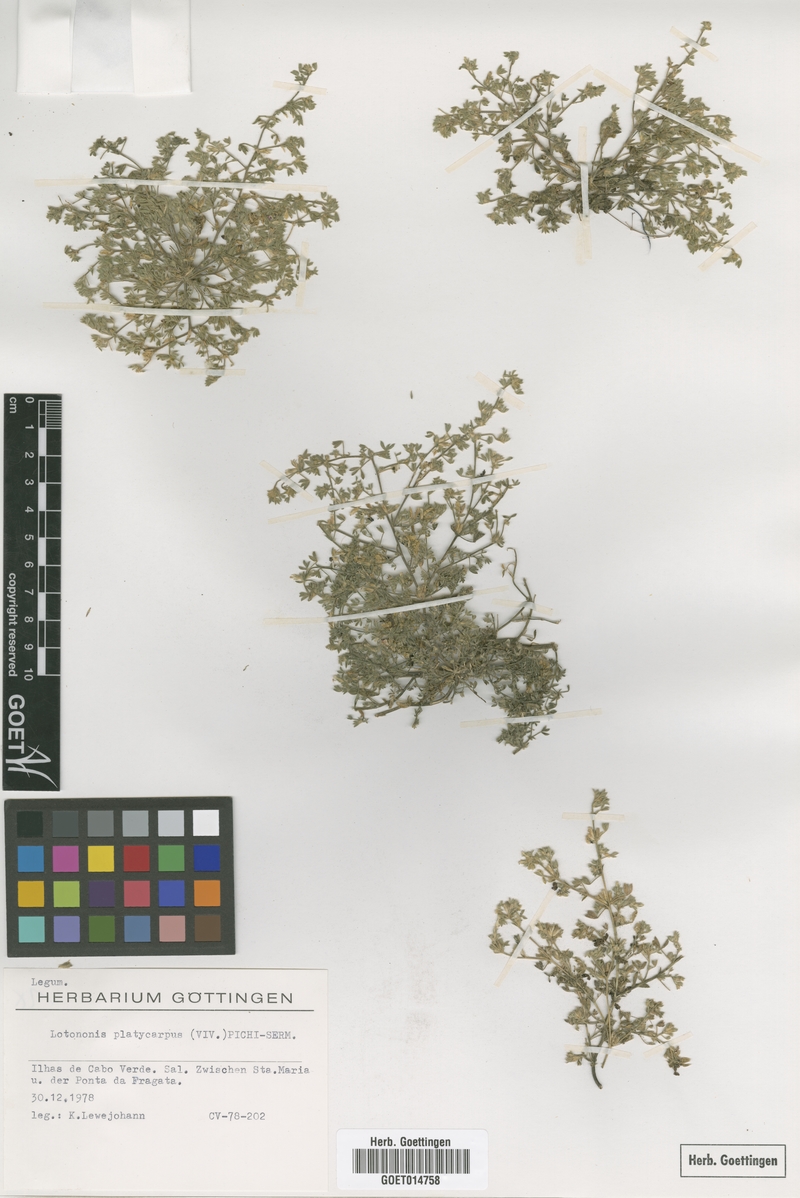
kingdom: Plantae
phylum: Tracheophyta
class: Magnoliopsida
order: Fabales
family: Fabaceae
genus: Leobordea
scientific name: Leobordea platycarpa
